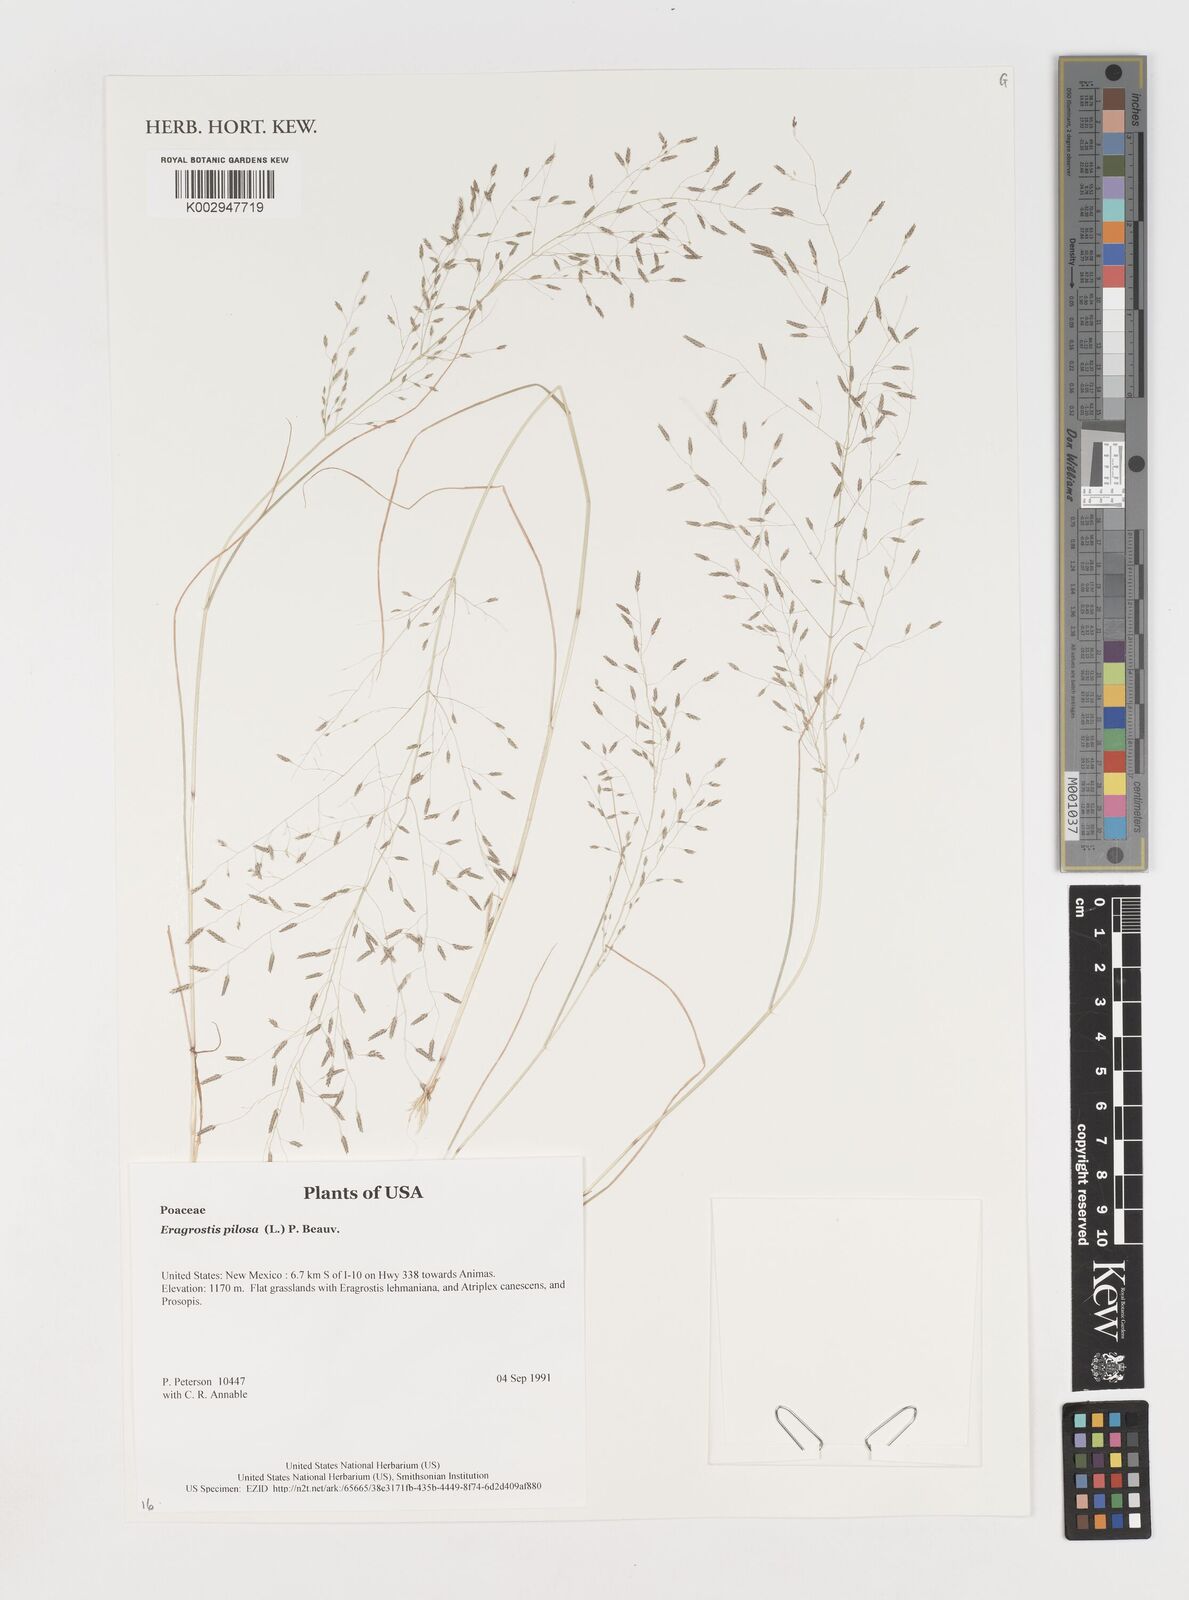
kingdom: Plantae
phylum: Tracheophyta
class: Liliopsida
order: Poales
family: Poaceae
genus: Eragrostis
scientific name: Eragrostis pilosa
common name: Indian lovegrass
